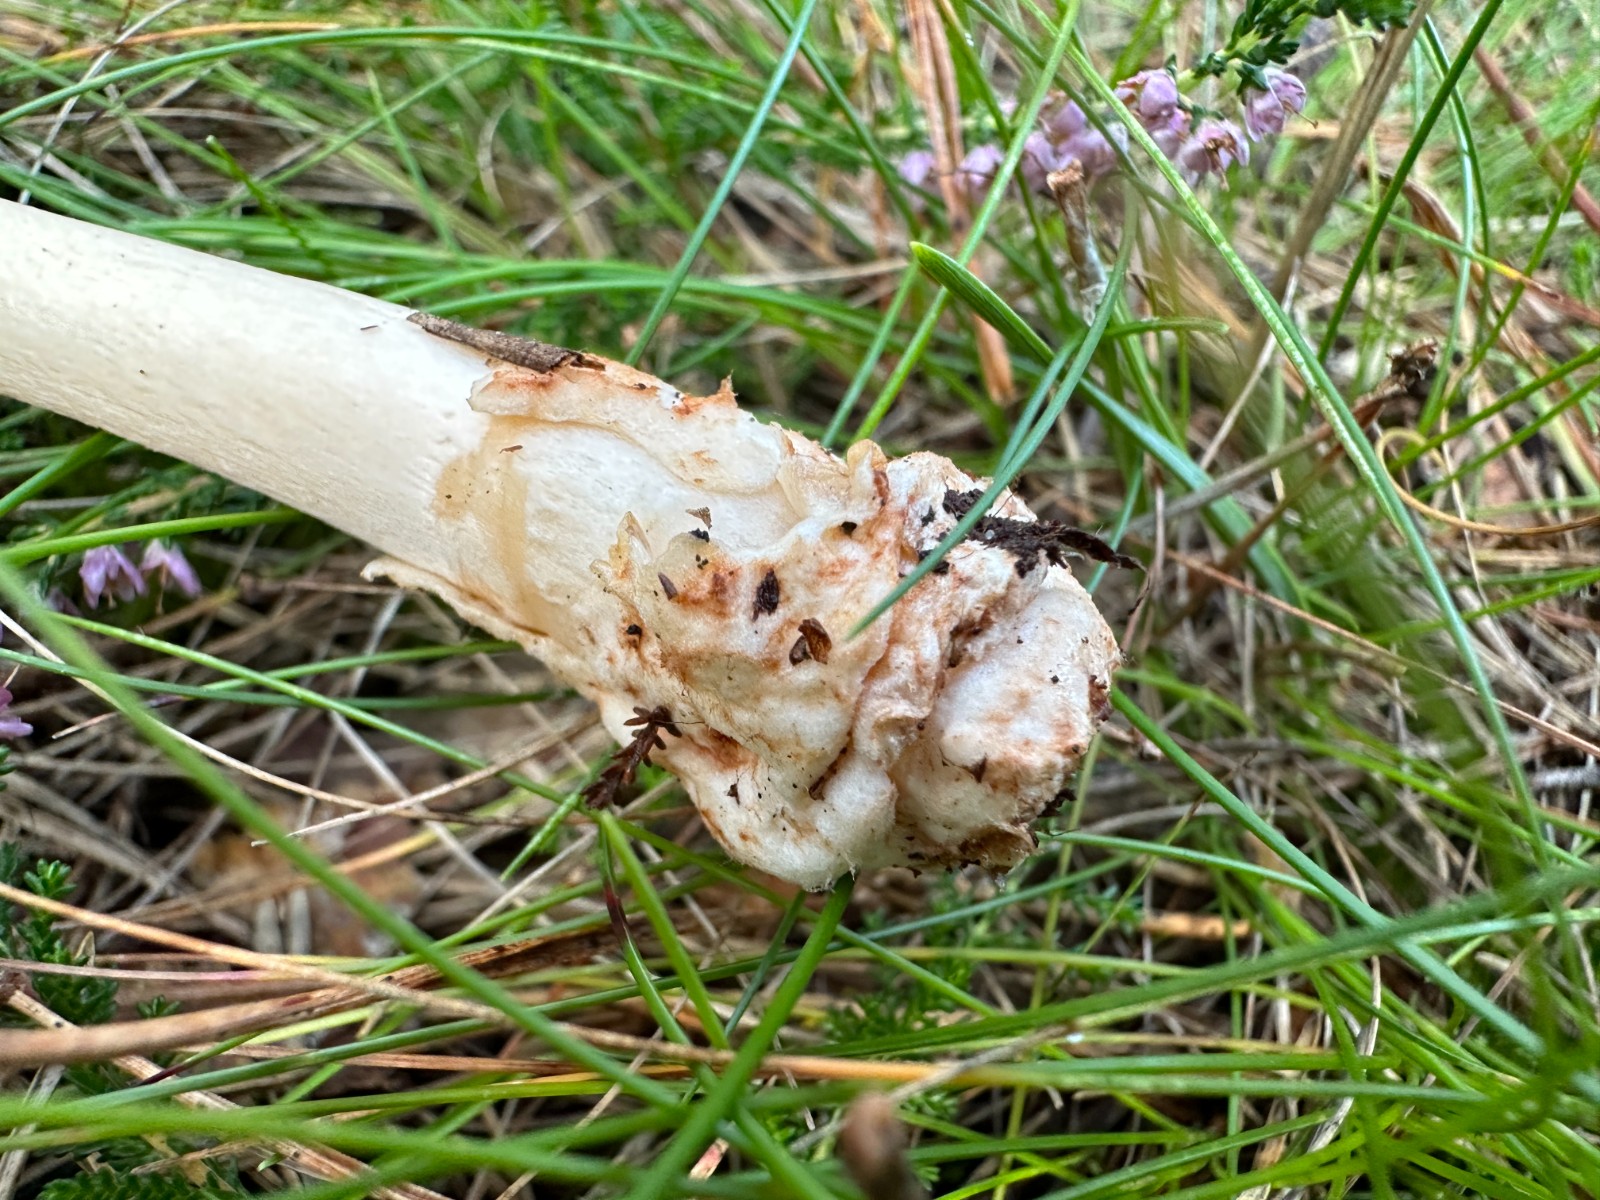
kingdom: Fungi
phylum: Basidiomycota
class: Agaricomycetes
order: Agaricales
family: Amanitaceae
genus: Amanita
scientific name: Amanita fulva
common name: brun kam-fluesvamp
